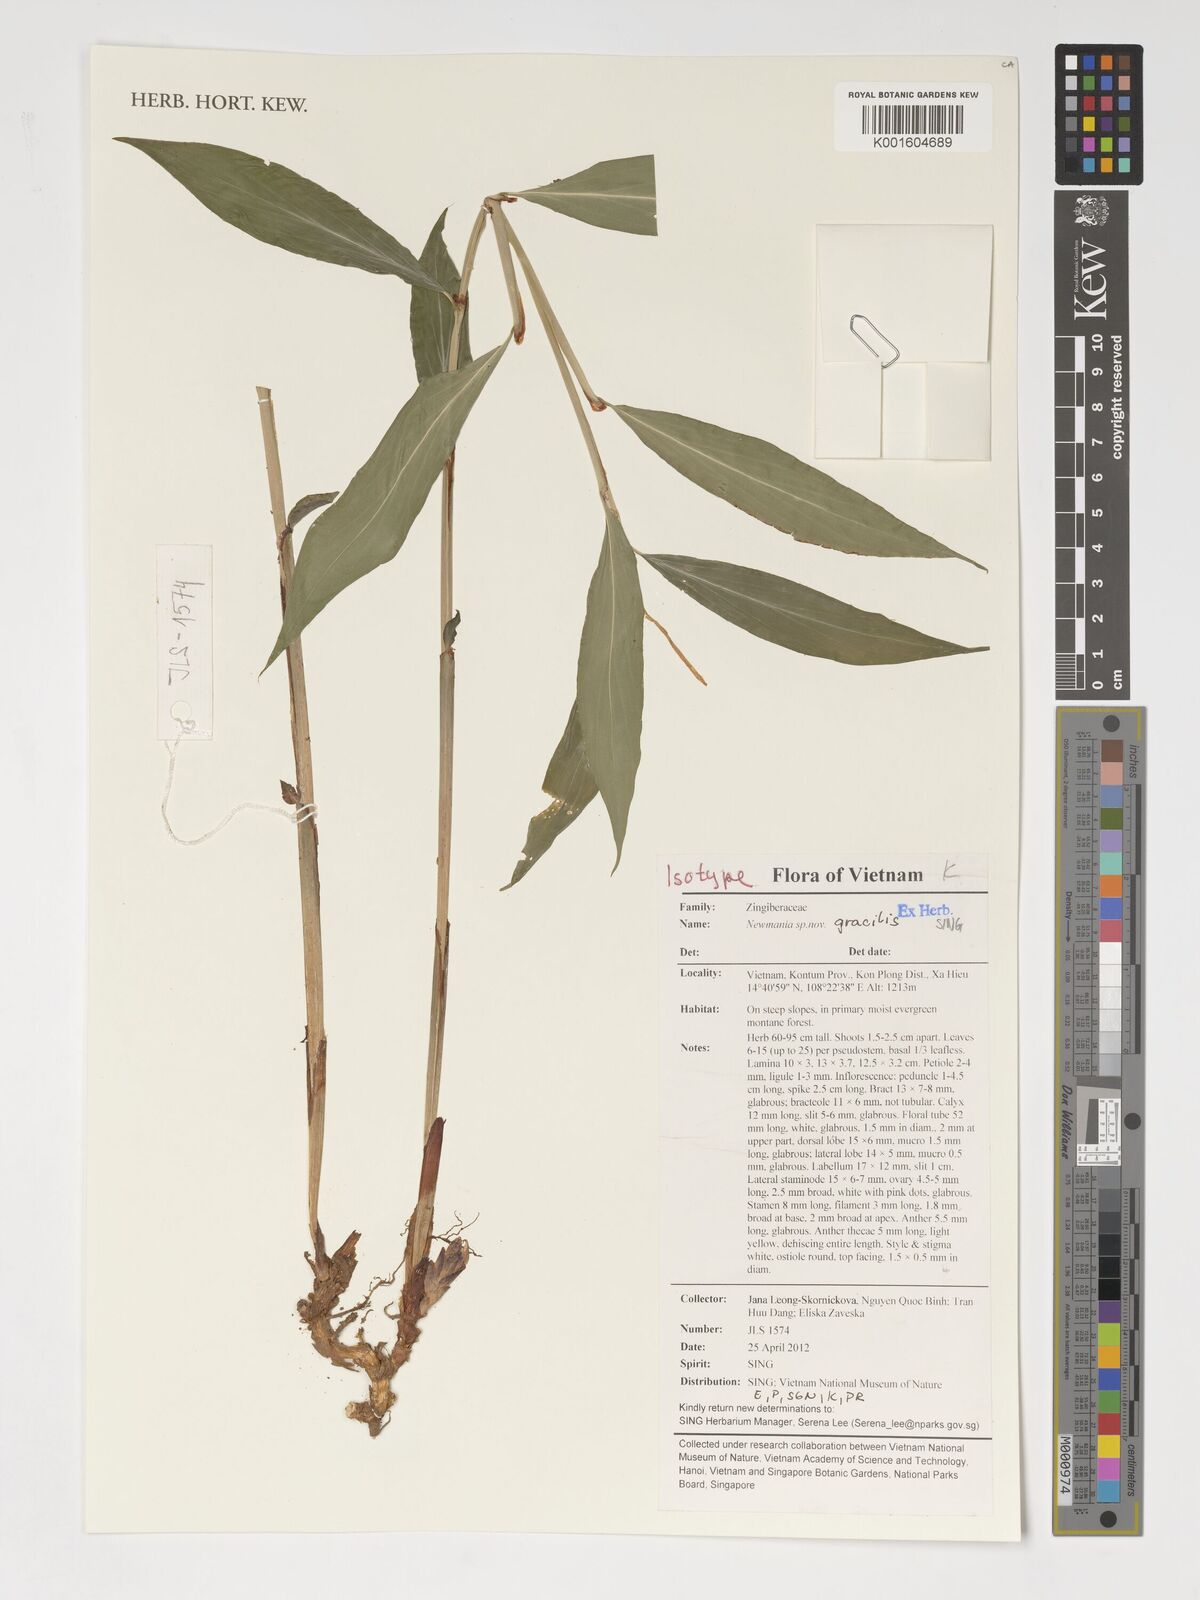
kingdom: Plantae
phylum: Tracheophyta
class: Liliopsida
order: Zingiberales
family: Zingiberaceae
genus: Newmania
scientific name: Newmania gracilis
